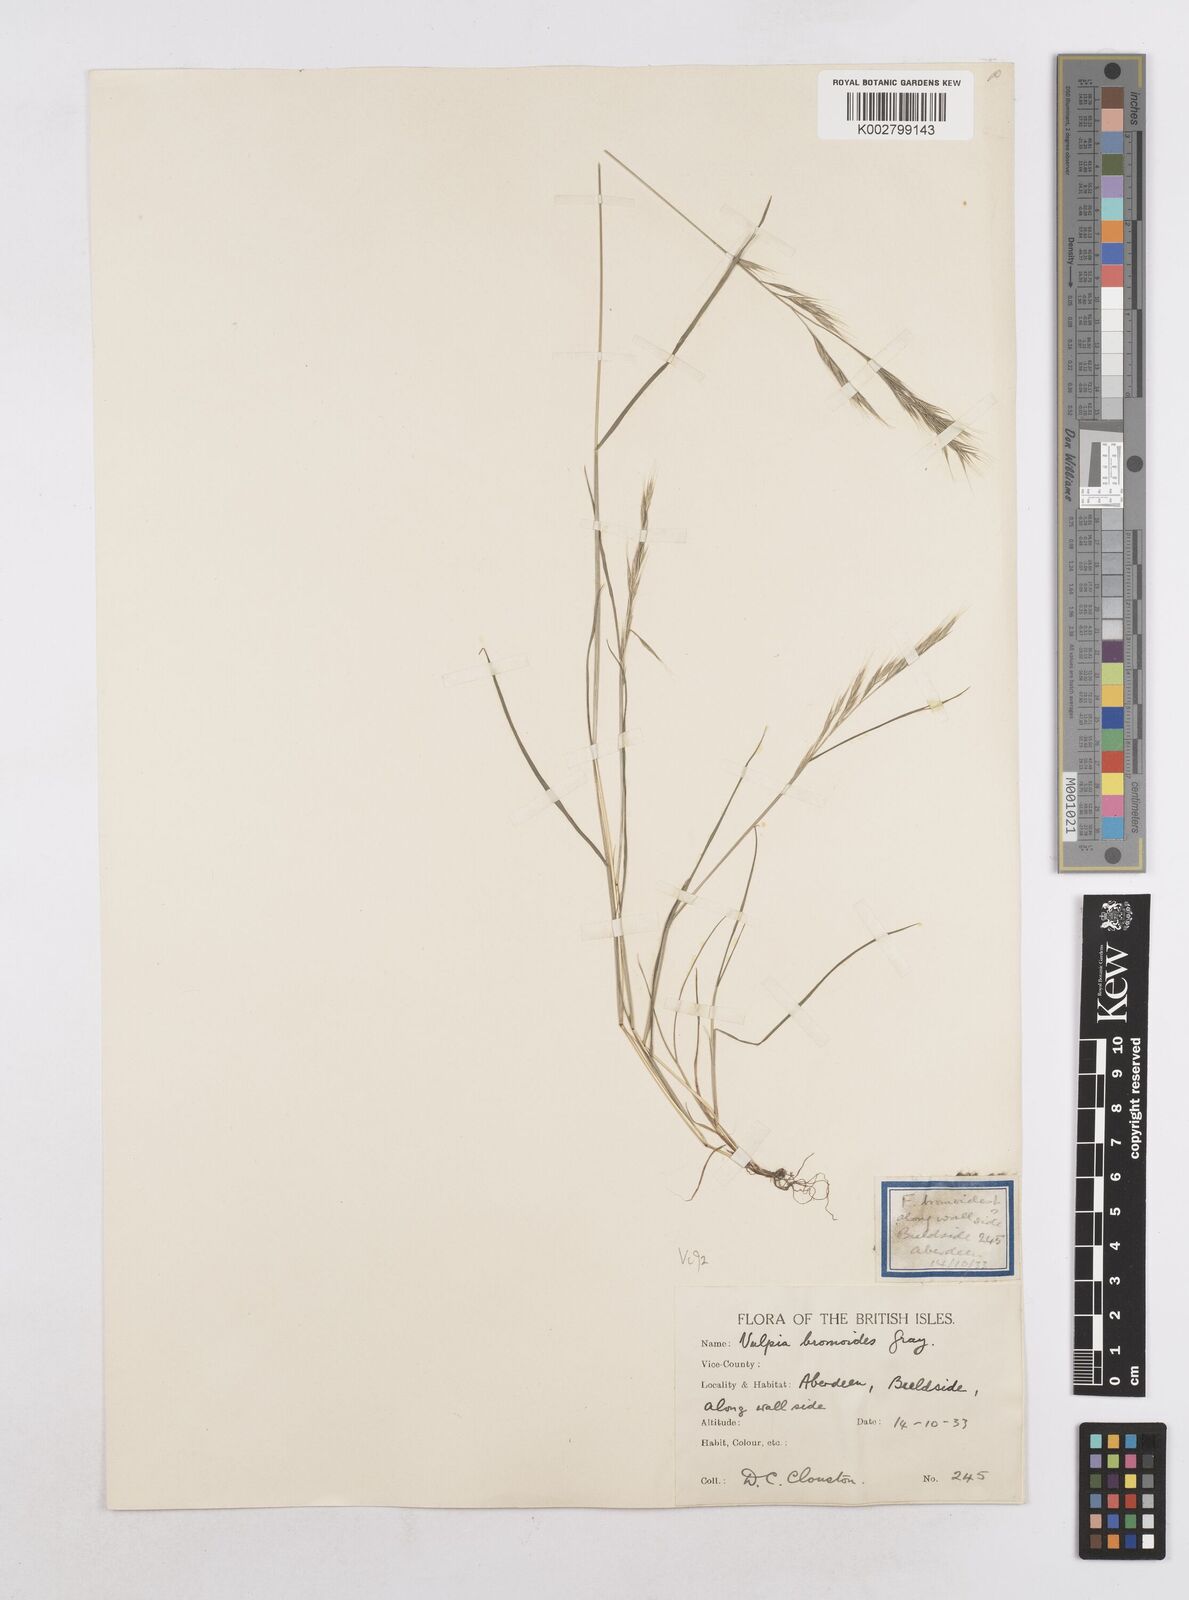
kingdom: Plantae
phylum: Tracheophyta
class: Liliopsida
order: Poales
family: Poaceae
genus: Festuca
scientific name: Festuca bromoides
